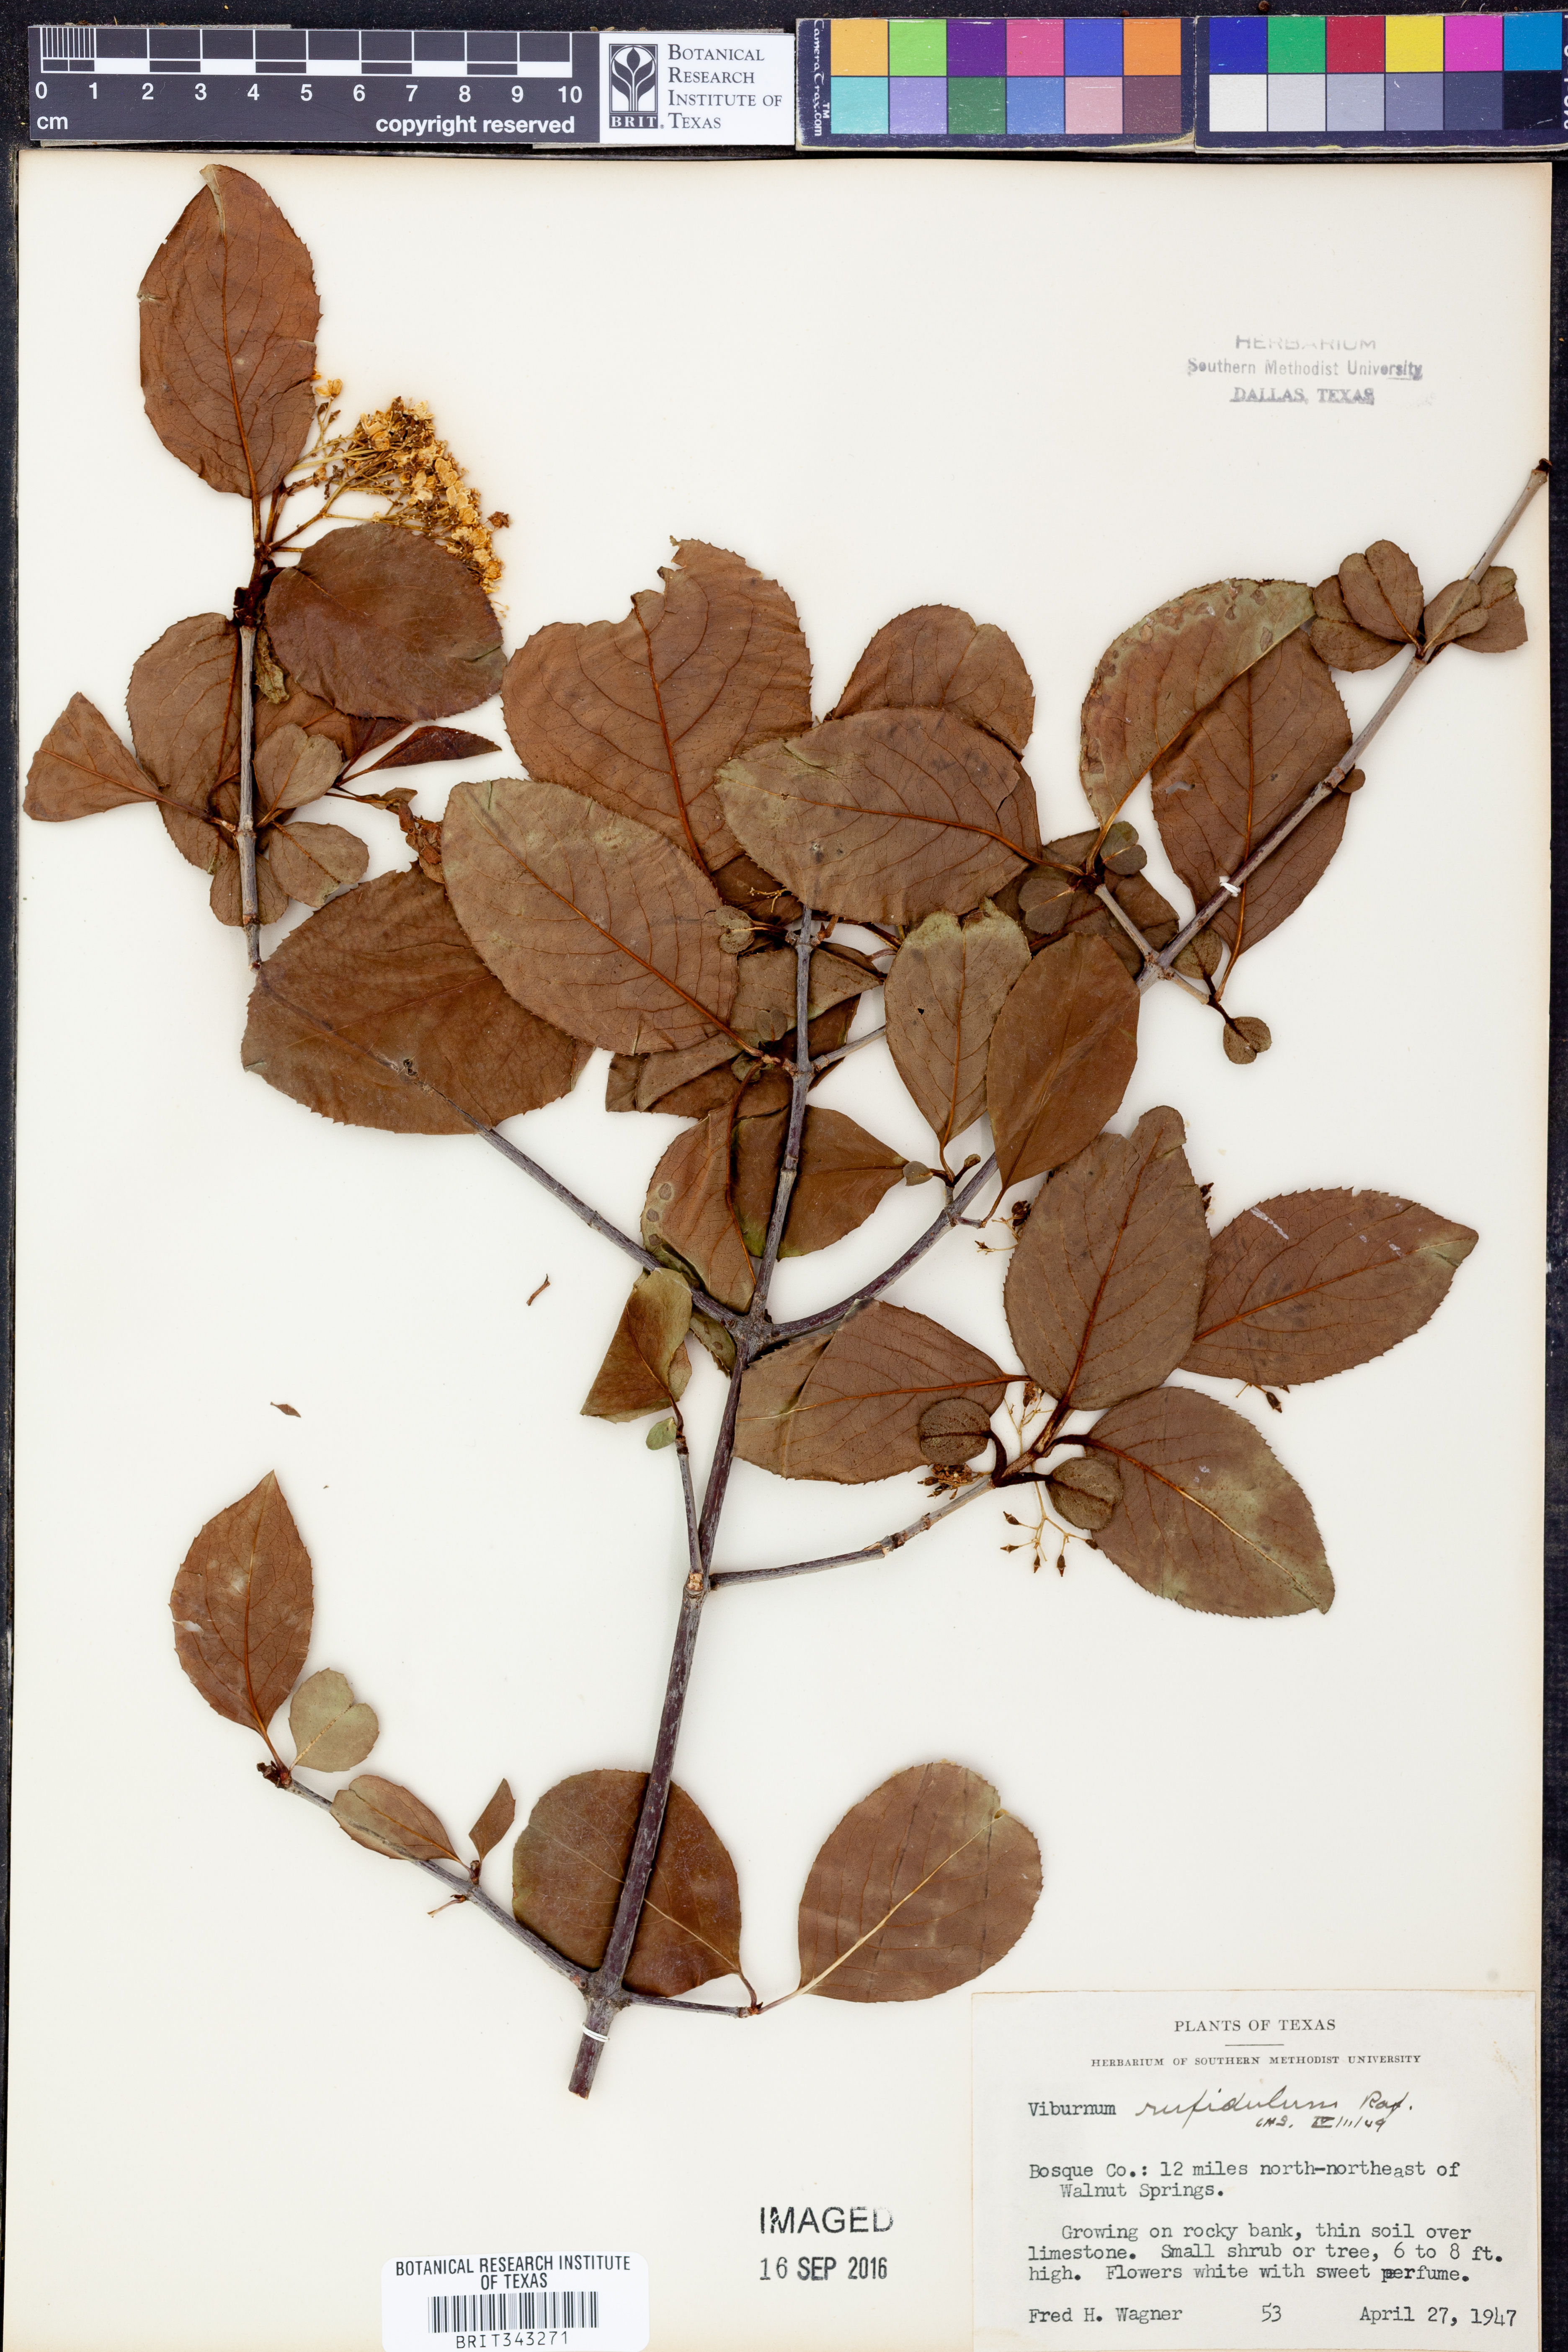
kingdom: Plantae
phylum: Tracheophyta
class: Magnoliopsida
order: Dipsacales
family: Viburnaceae
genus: Viburnum
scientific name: Viburnum rufidulum
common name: Blue haw
